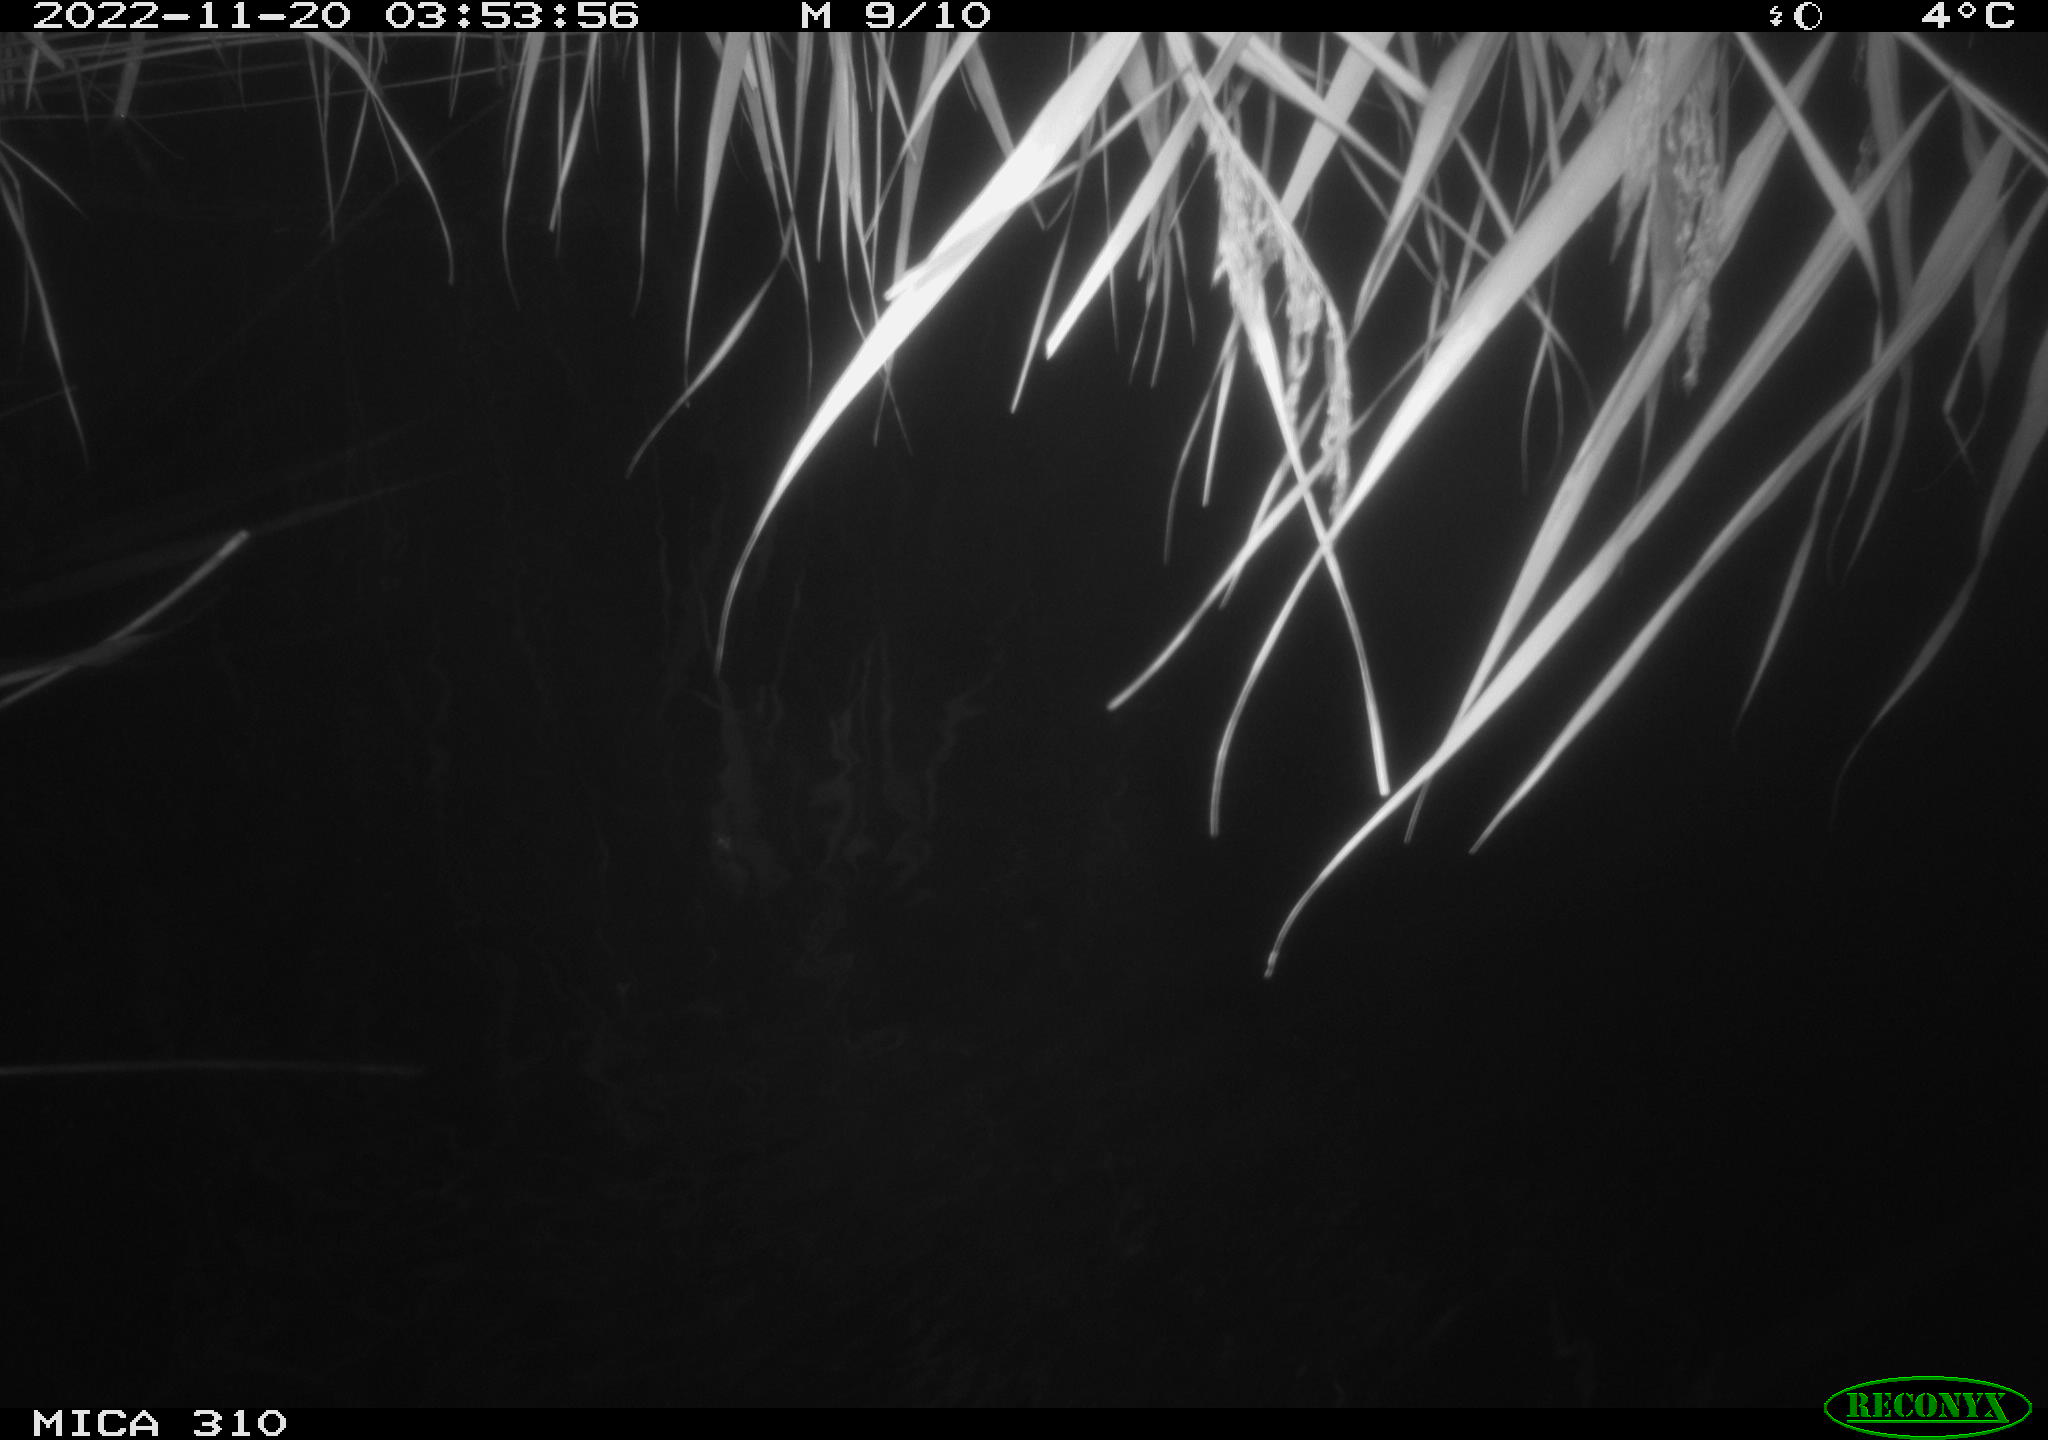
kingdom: Animalia
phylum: Chordata
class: Mammalia
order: Rodentia
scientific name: Rodentia
